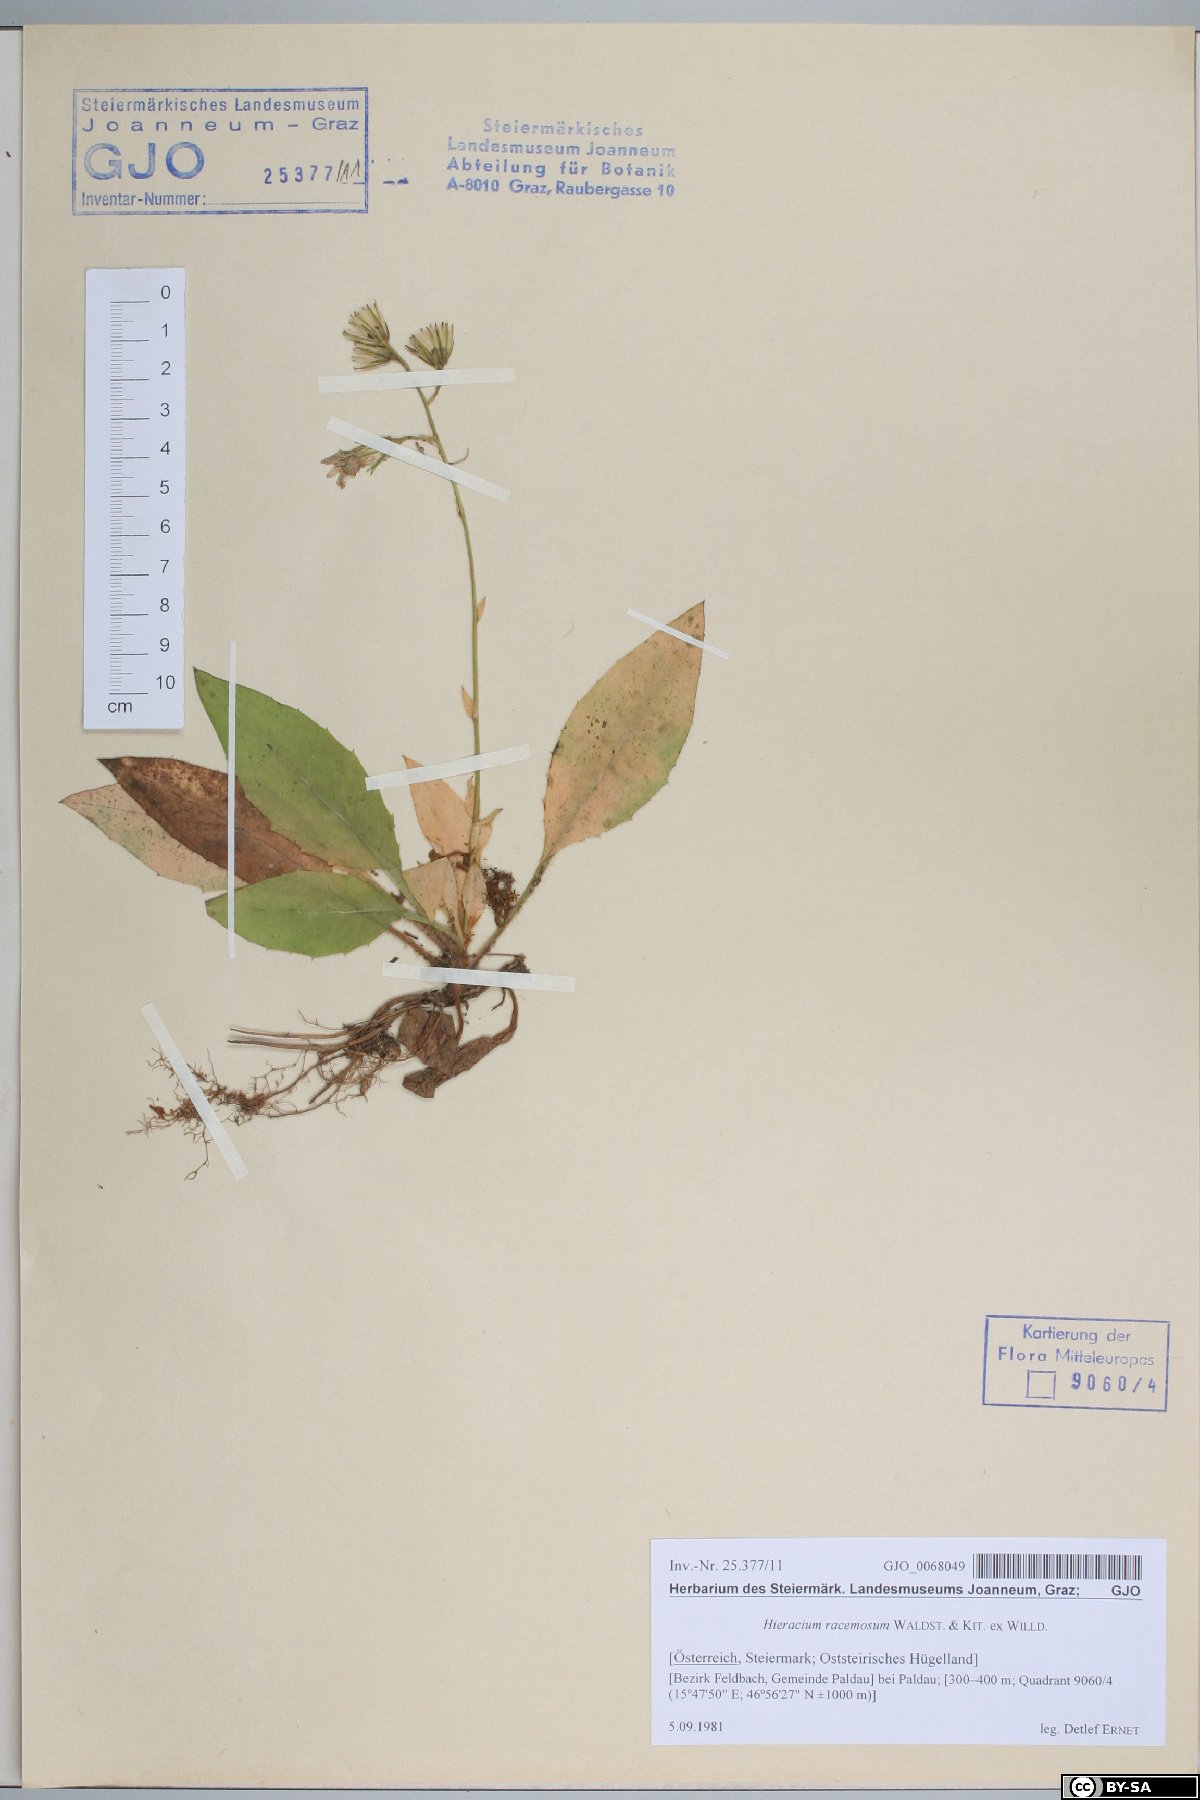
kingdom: Plantae
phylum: Tracheophyta
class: Magnoliopsida
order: Asterales
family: Asteraceae
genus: Hieracium
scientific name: Hieracium racemosum
